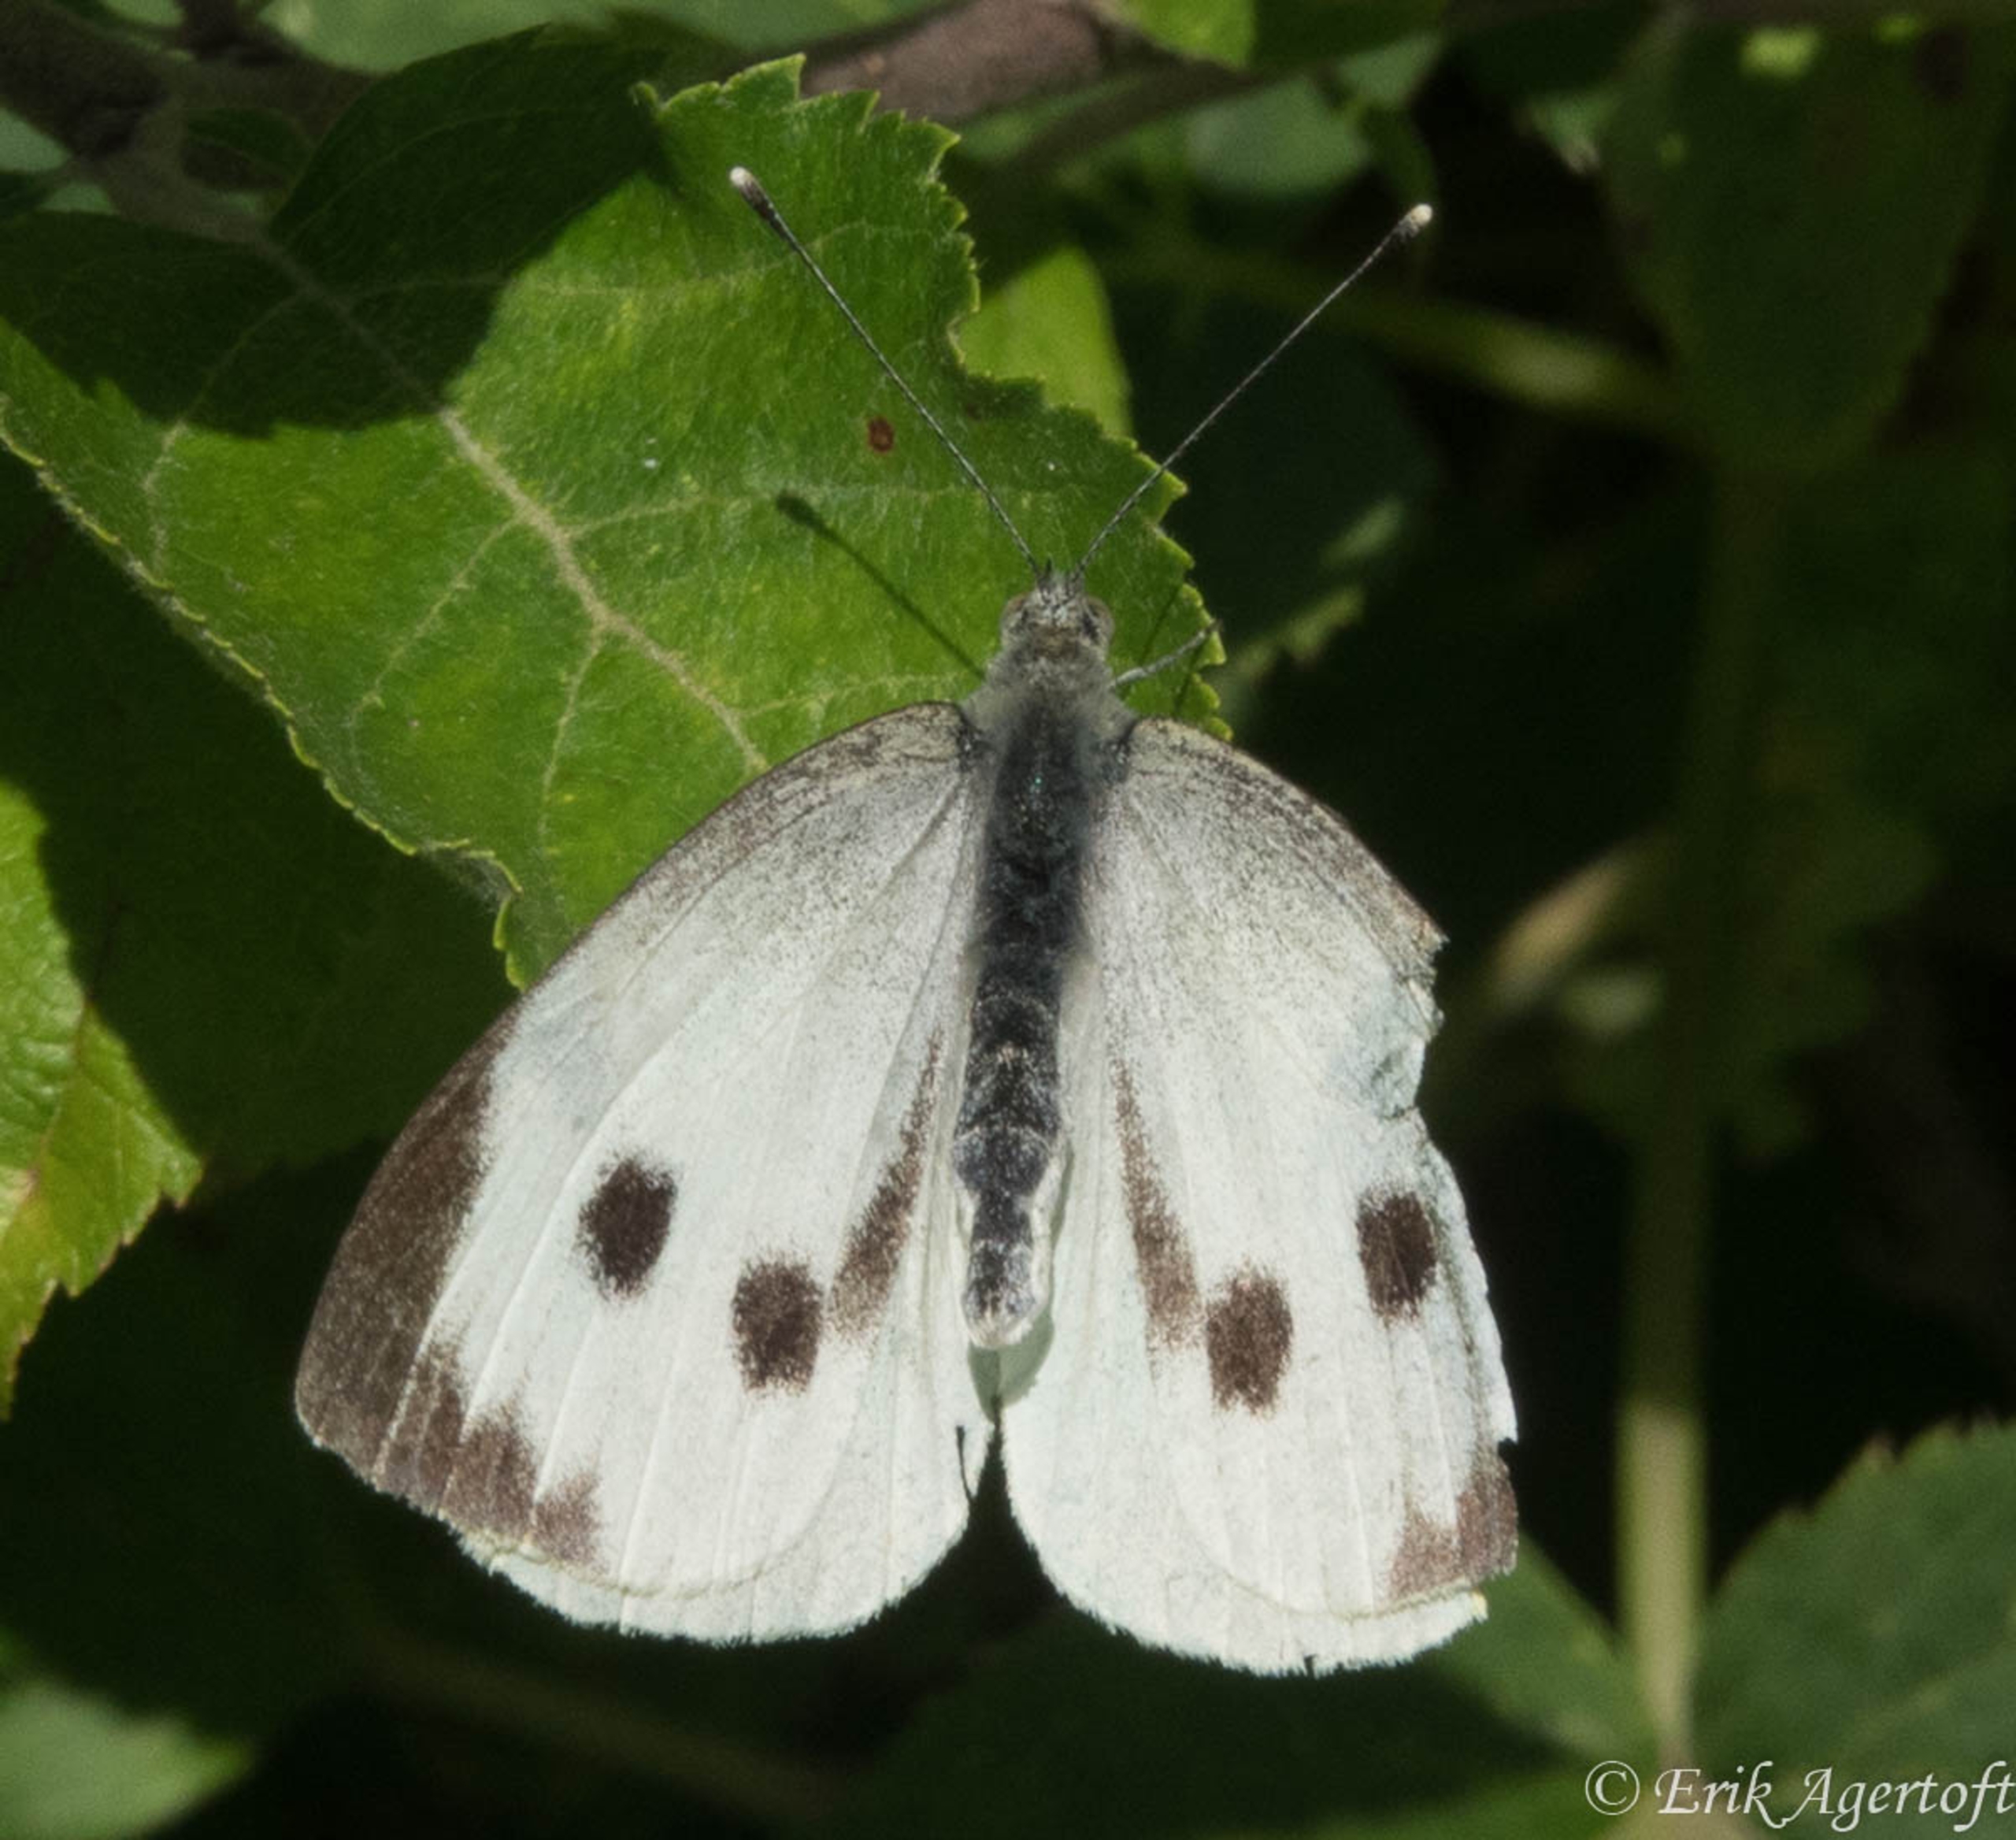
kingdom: Animalia
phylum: Arthropoda
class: Insecta
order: Lepidoptera
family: Pieridae
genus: Pieris
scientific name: Pieris brassicae
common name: Stor kålsommerfugl
